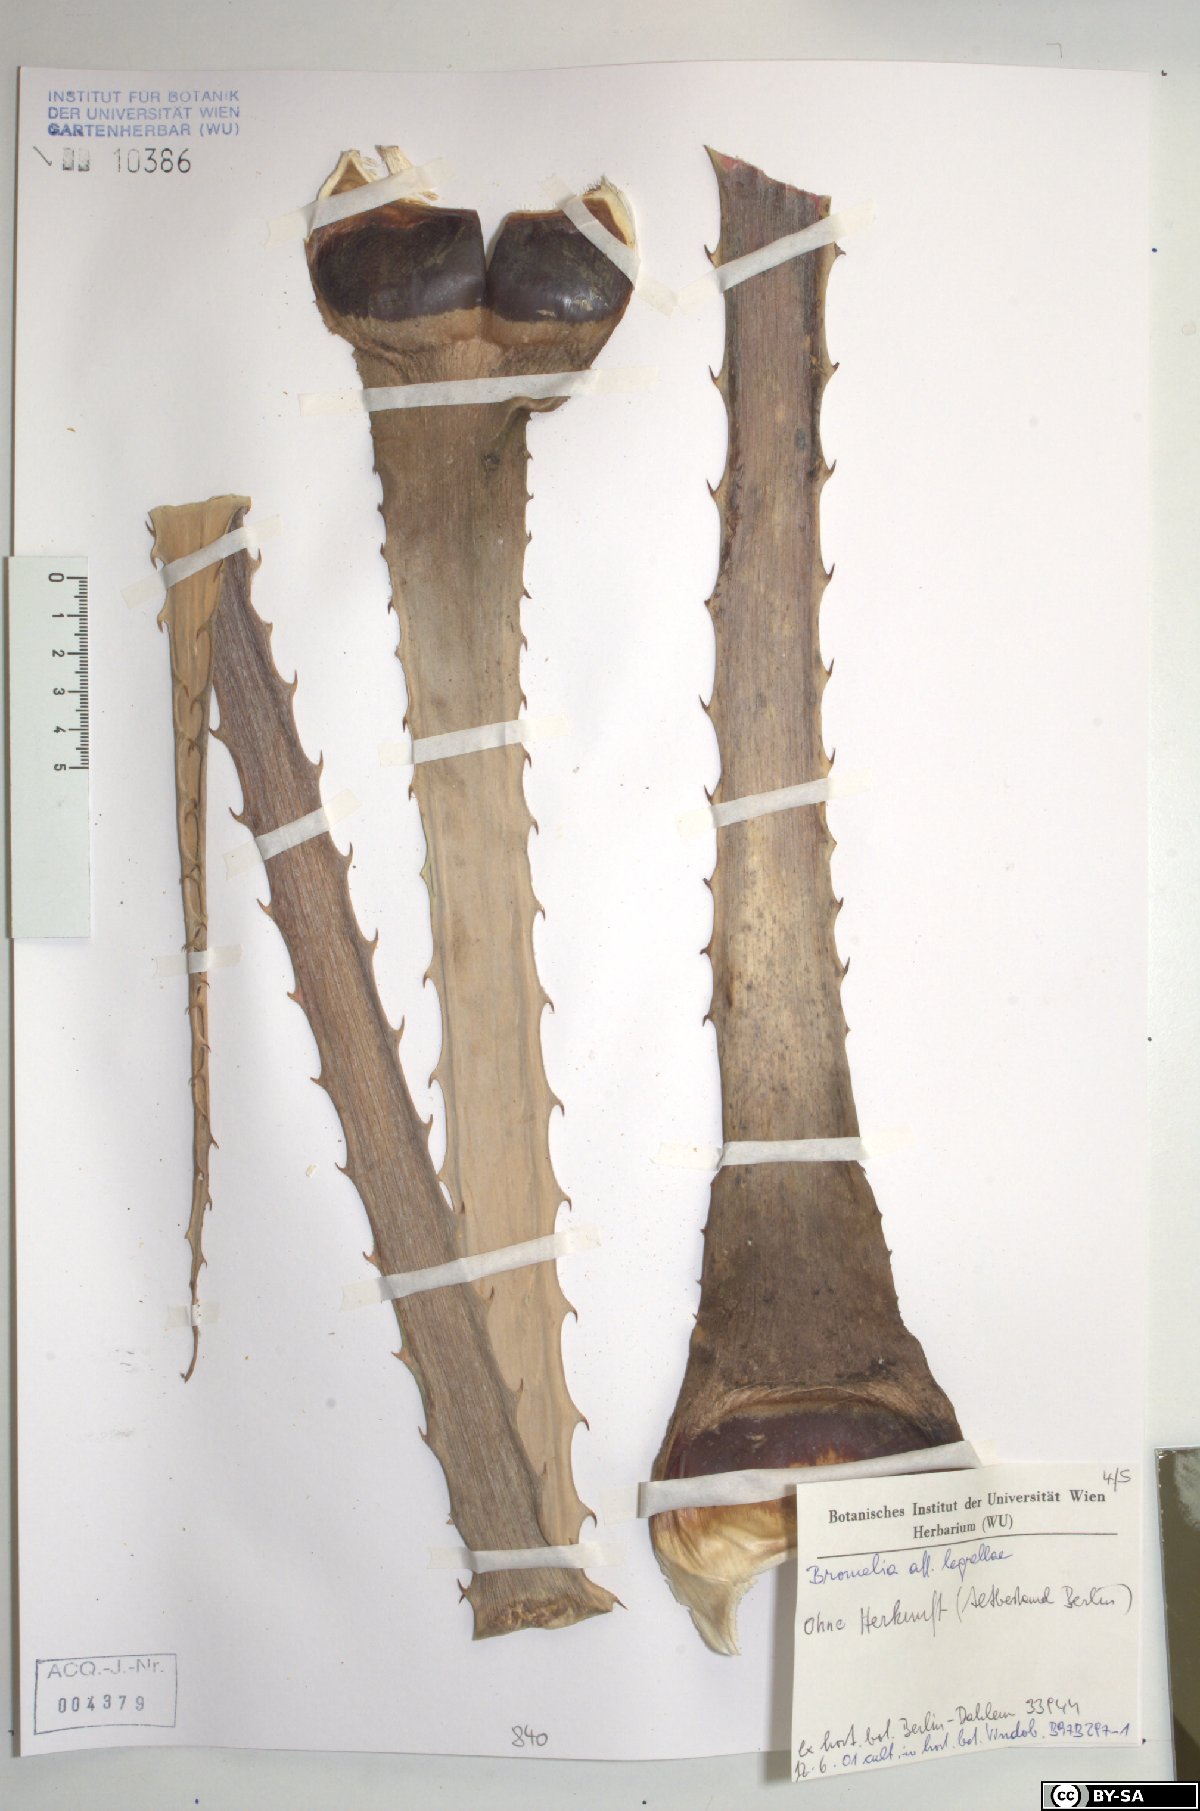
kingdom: Plantae
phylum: Tracheophyta
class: Liliopsida
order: Poales
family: Bromeliaceae
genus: Bromelia
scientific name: Bromelia legrellae
